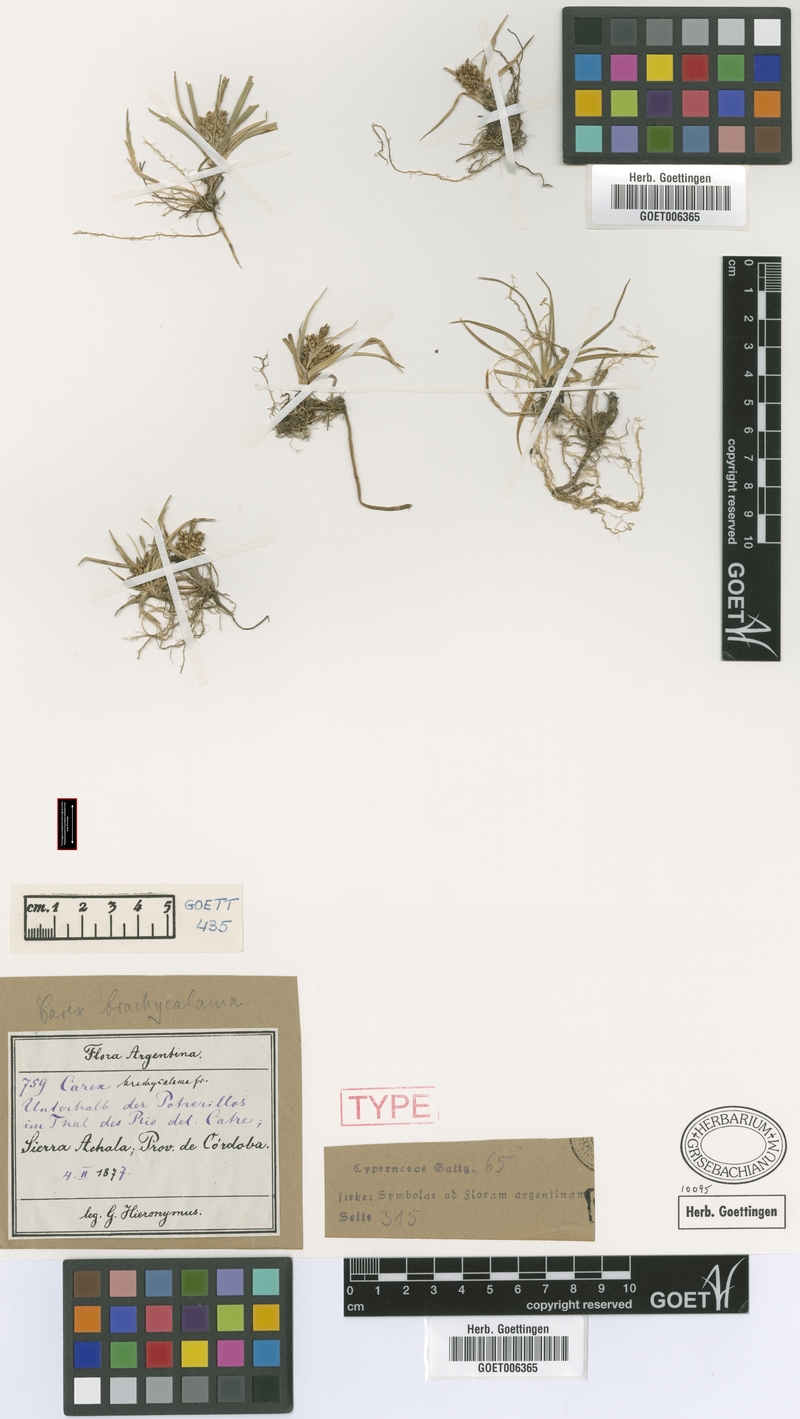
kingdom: Plantae
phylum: Tracheophyta
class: Liliopsida
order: Poales
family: Cyperaceae
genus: Carex
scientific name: Carex brachycalama
